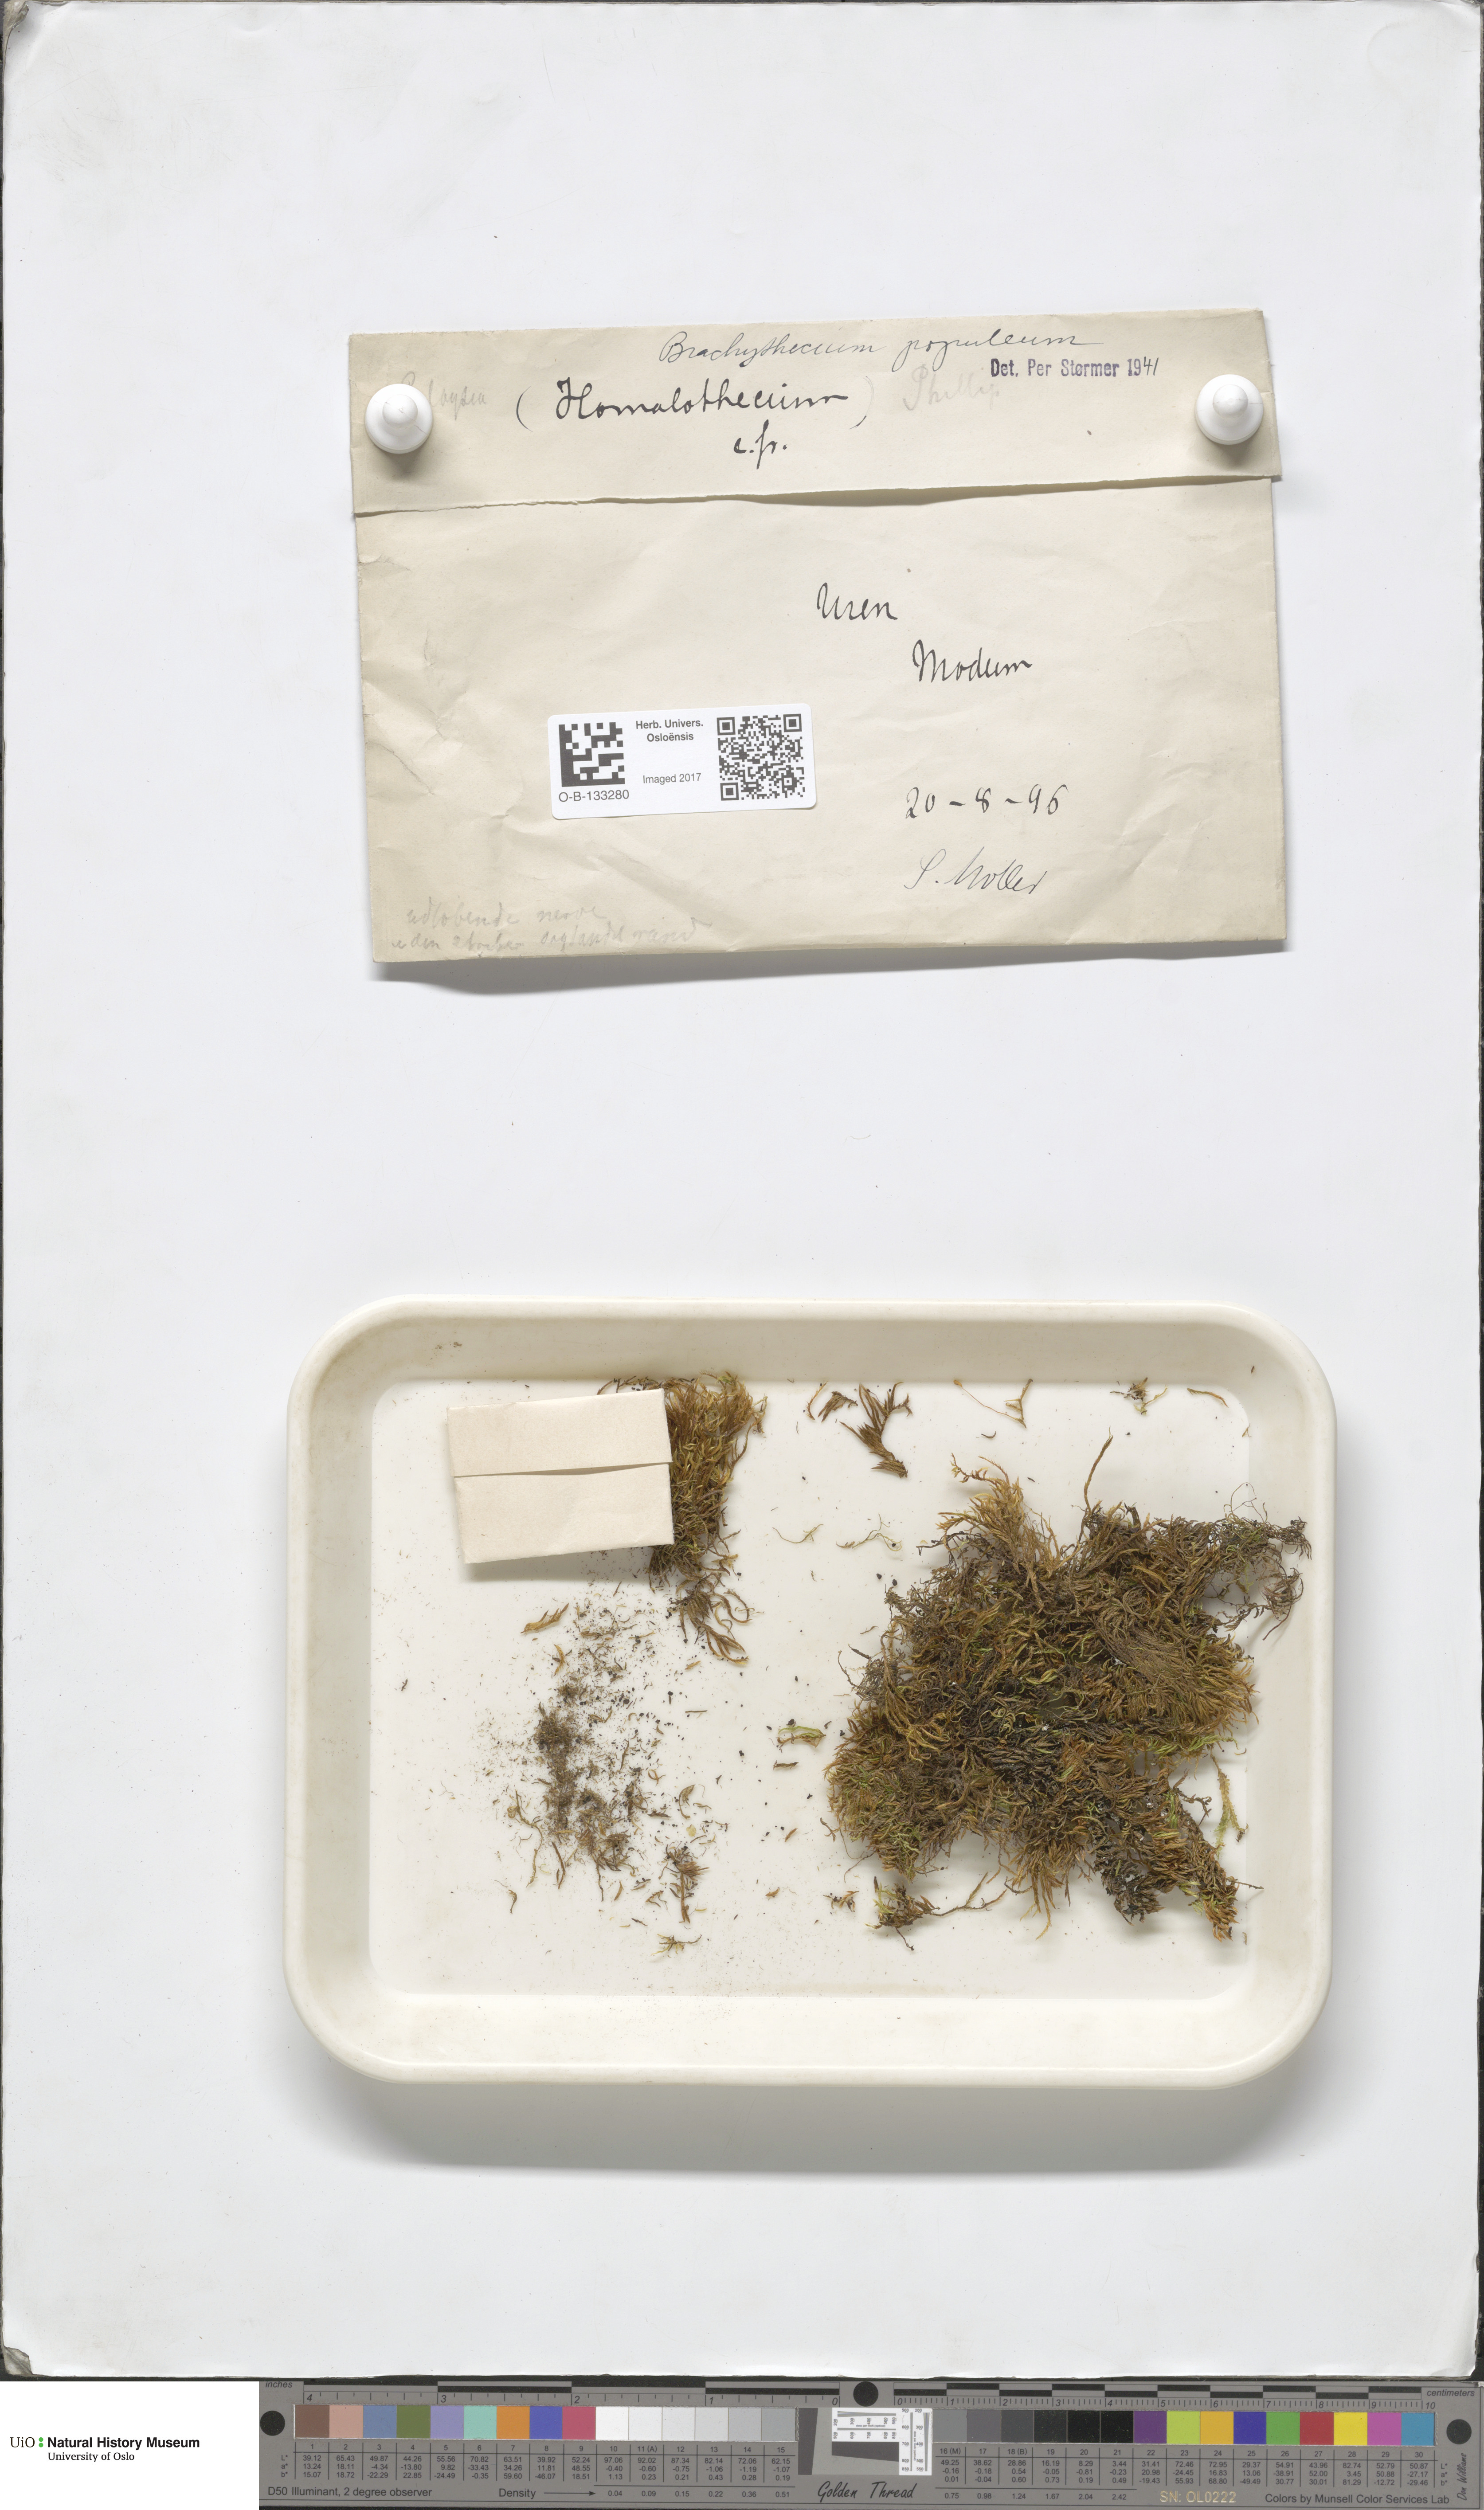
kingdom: Plantae
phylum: Bryophyta
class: Bryopsida
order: Hypnales
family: Brachytheciaceae
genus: Sciuro-hypnum
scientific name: Sciuro-hypnum plumosum
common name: Rusty feather-moss
